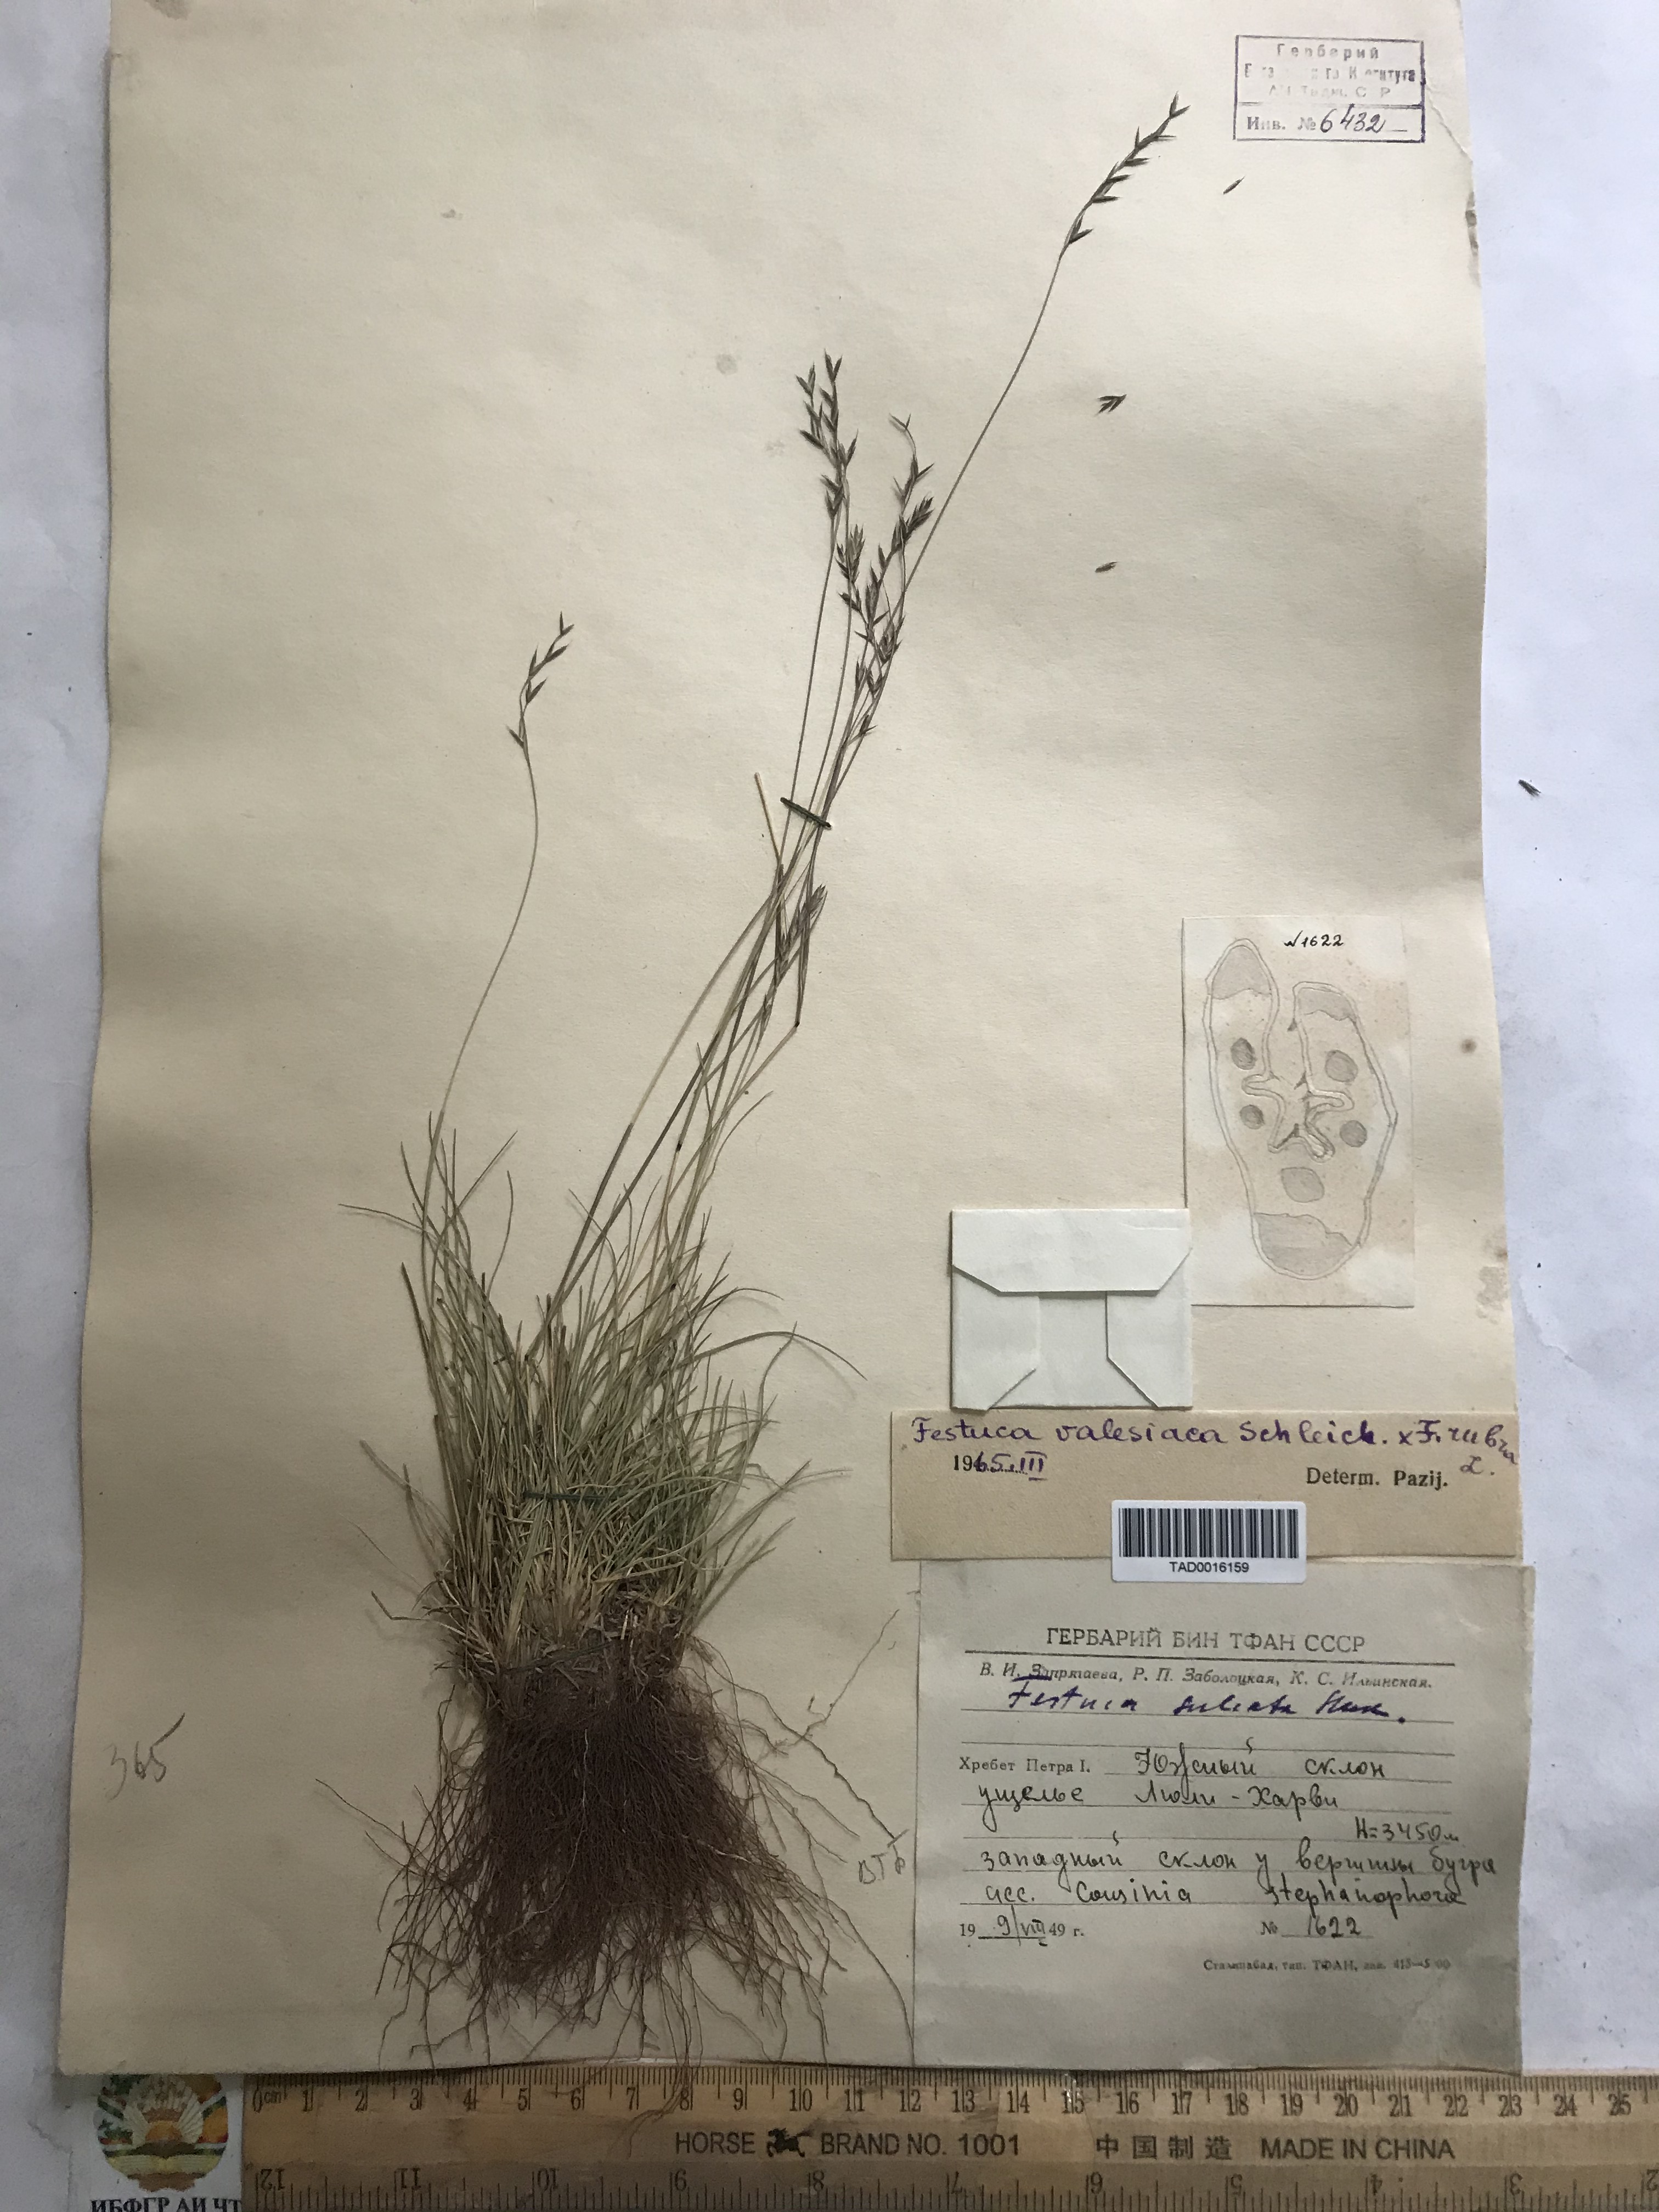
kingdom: Plantae
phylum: Tracheophyta
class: Liliopsida
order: Poales
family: Poaceae
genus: Festuca
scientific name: Festuca valesiaca
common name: Volga fescue
